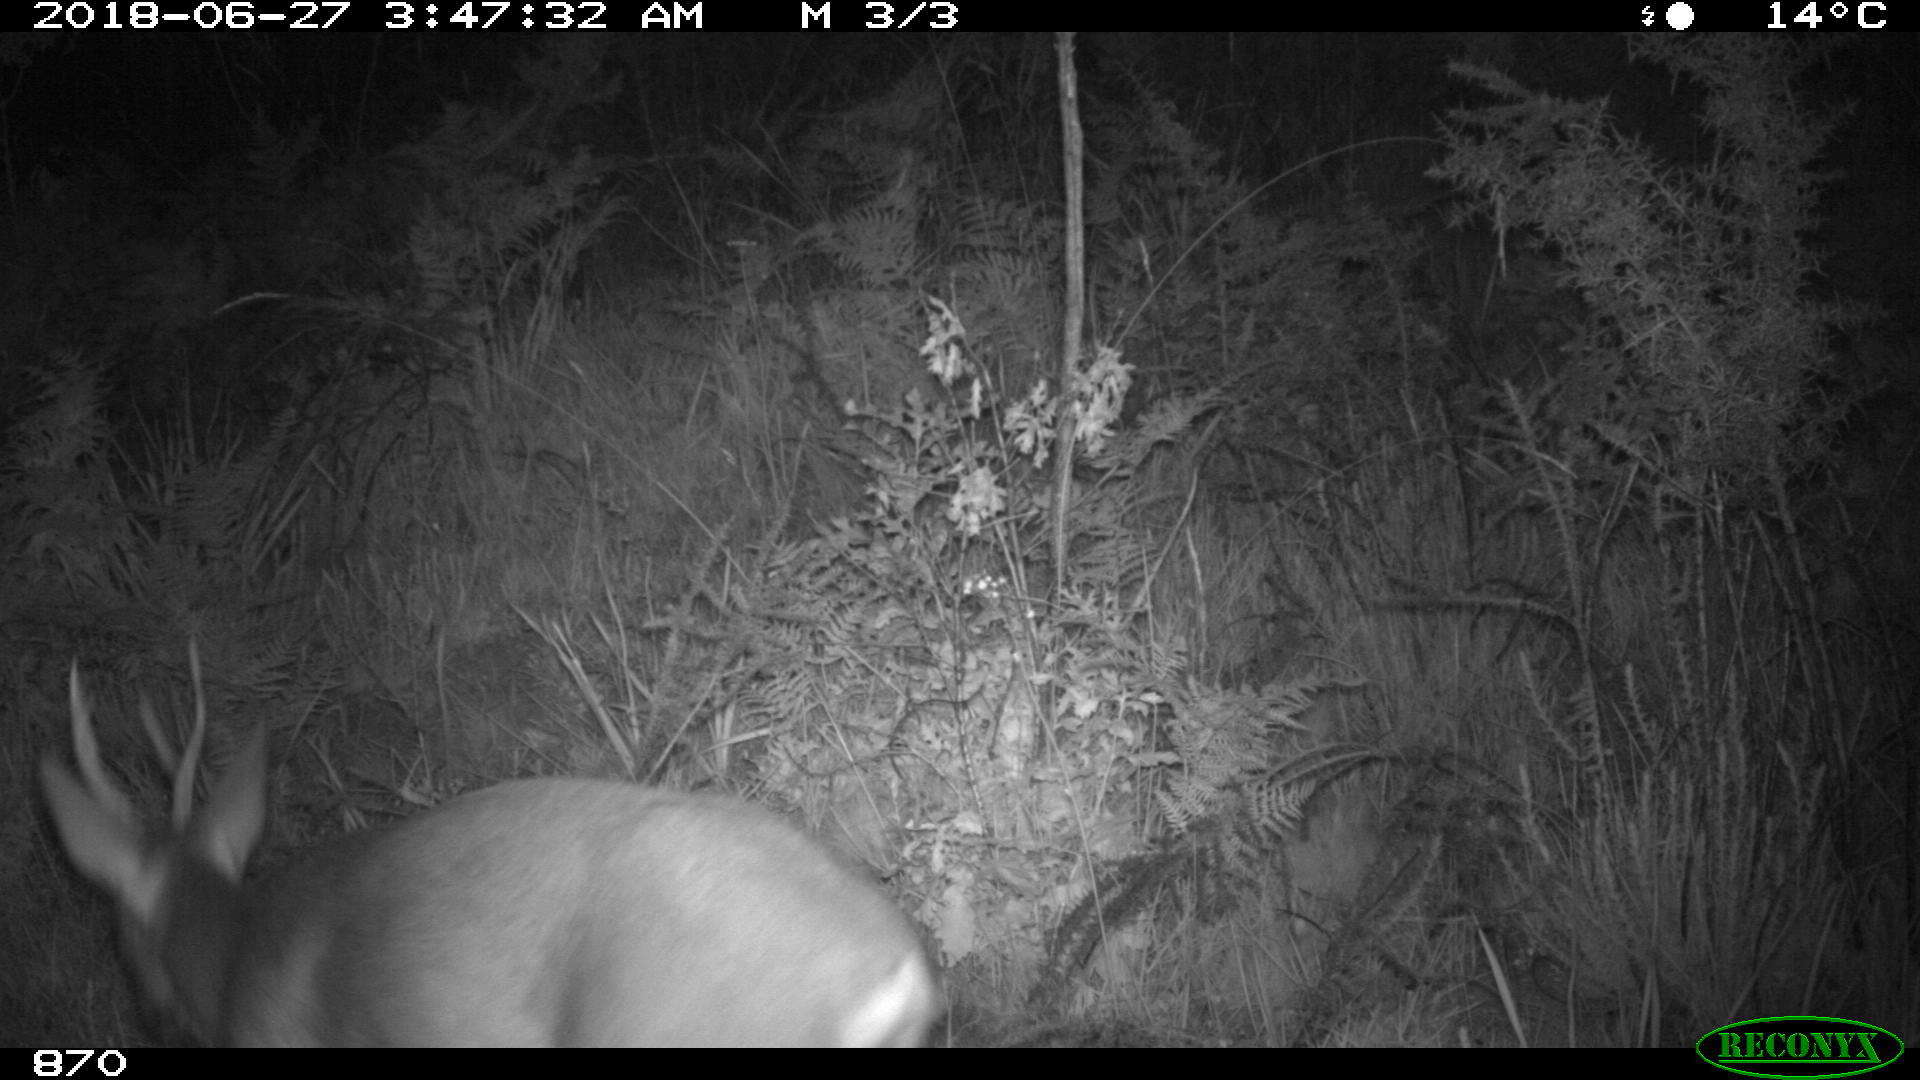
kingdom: Animalia
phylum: Chordata
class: Mammalia
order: Artiodactyla
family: Cervidae
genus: Capreolus
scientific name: Capreolus capreolus
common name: Western roe deer
